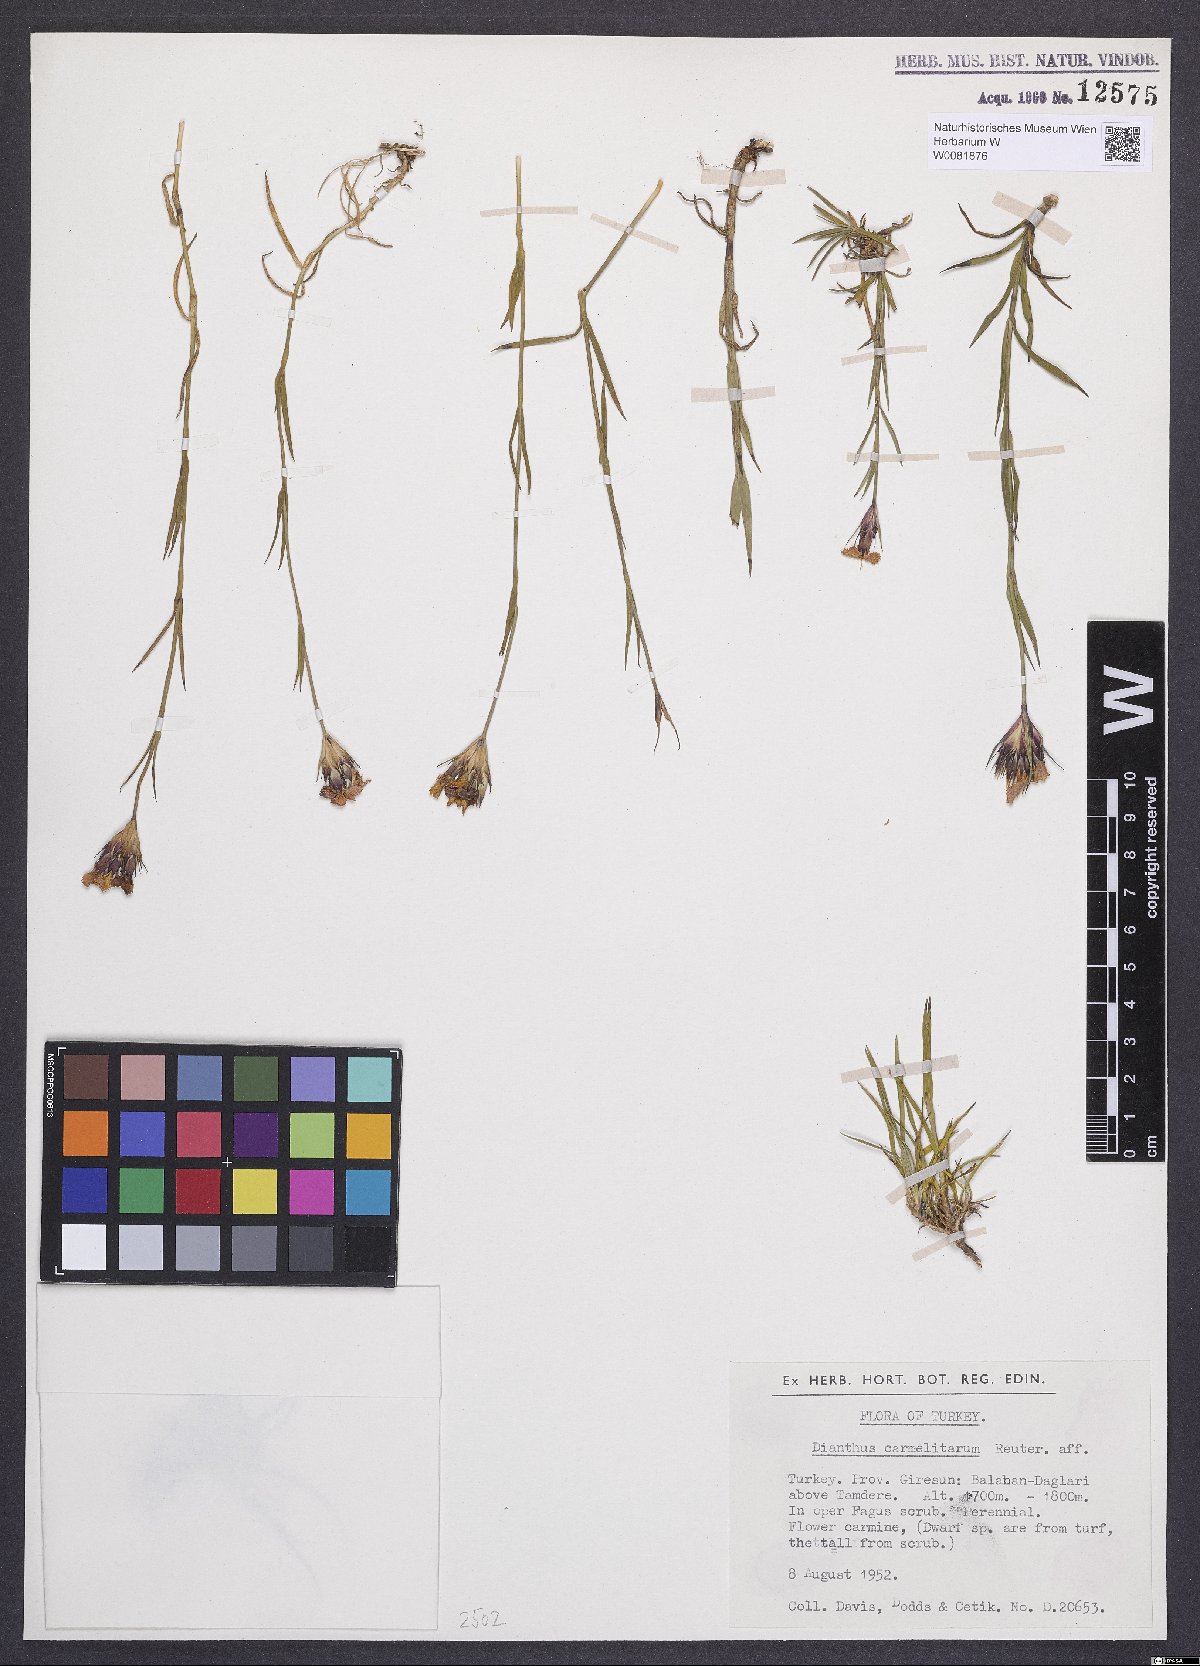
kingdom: Plantae
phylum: Tracheophyta
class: Magnoliopsida
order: Caryophyllales
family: Caryophyllaceae
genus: Dianthus
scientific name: Dianthus carmelitarum
